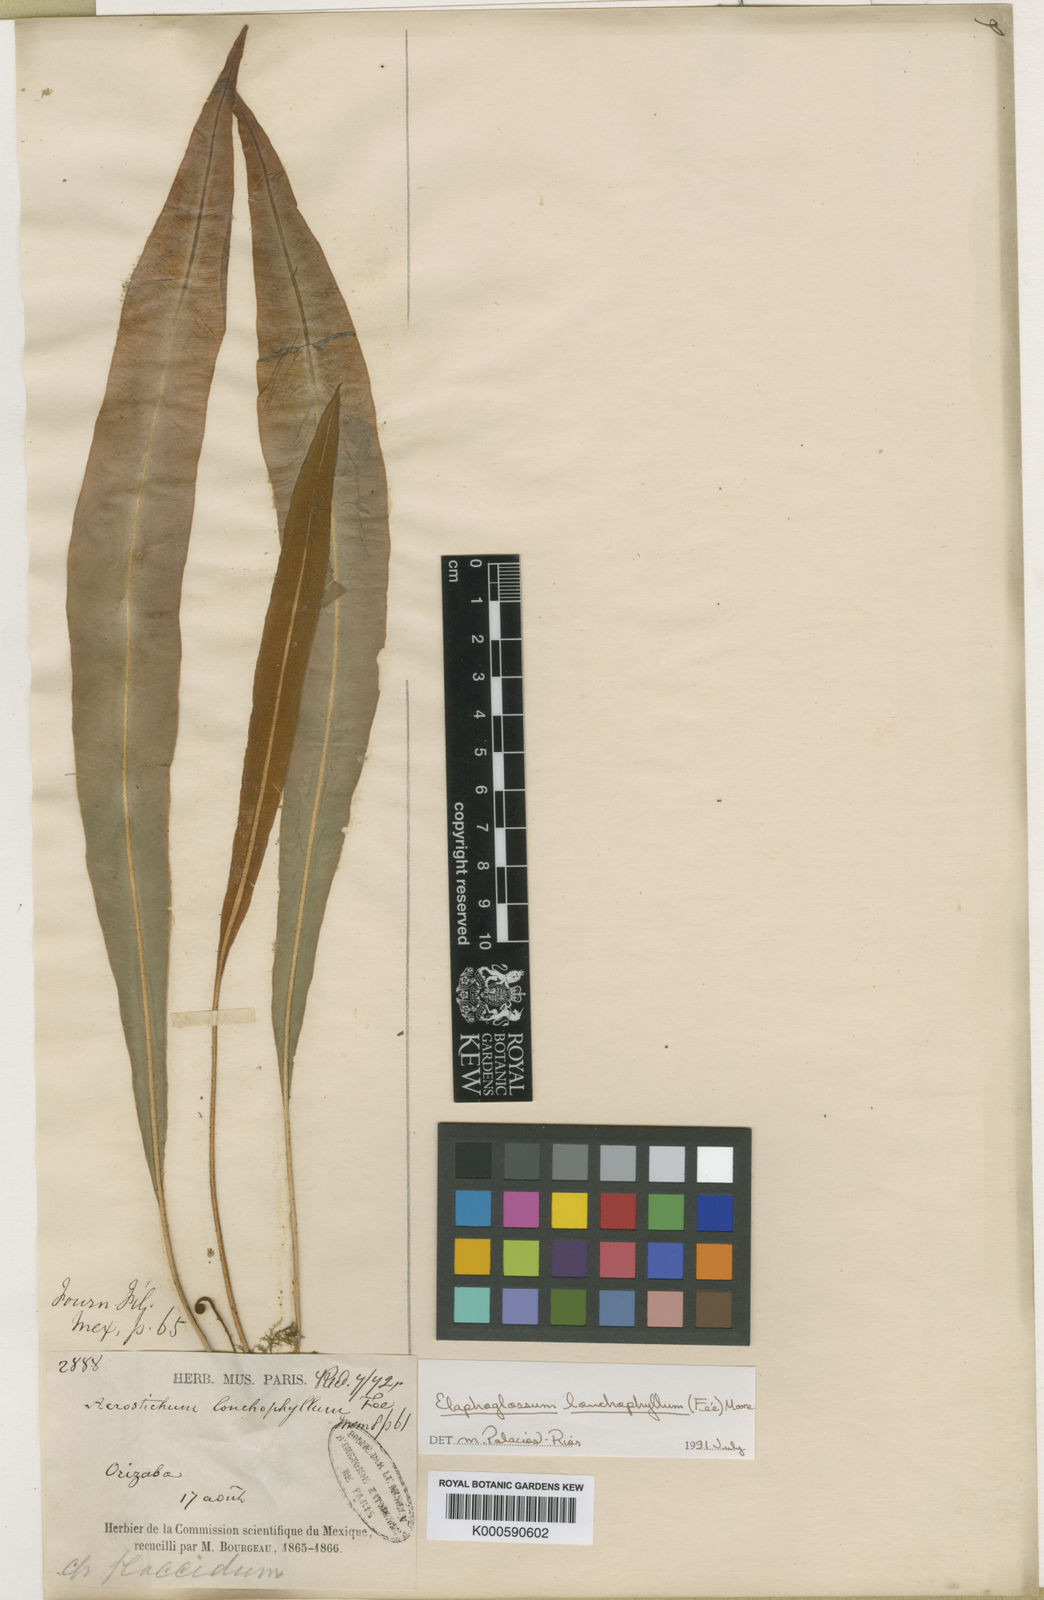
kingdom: Plantae
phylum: Tracheophyta
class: Polypodiopsida
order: Polypodiales
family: Dryopteridaceae
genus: Elaphoglossum
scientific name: Elaphoglossum
